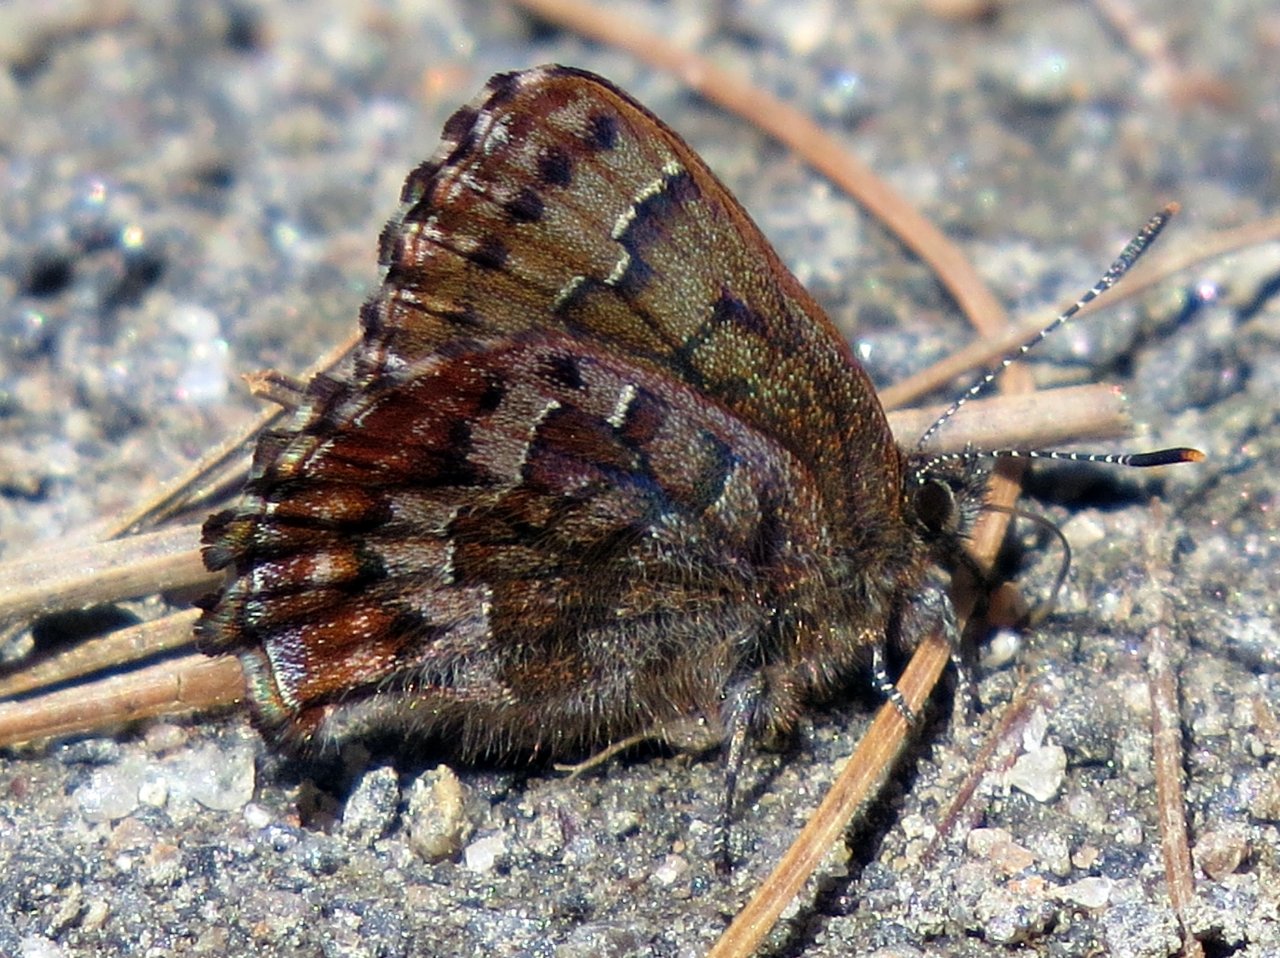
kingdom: Animalia
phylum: Arthropoda
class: Insecta
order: Lepidoptera
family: Lycaenidae
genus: Incisalia
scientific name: Incisalia niphon
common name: Eastern Pine Elfin
